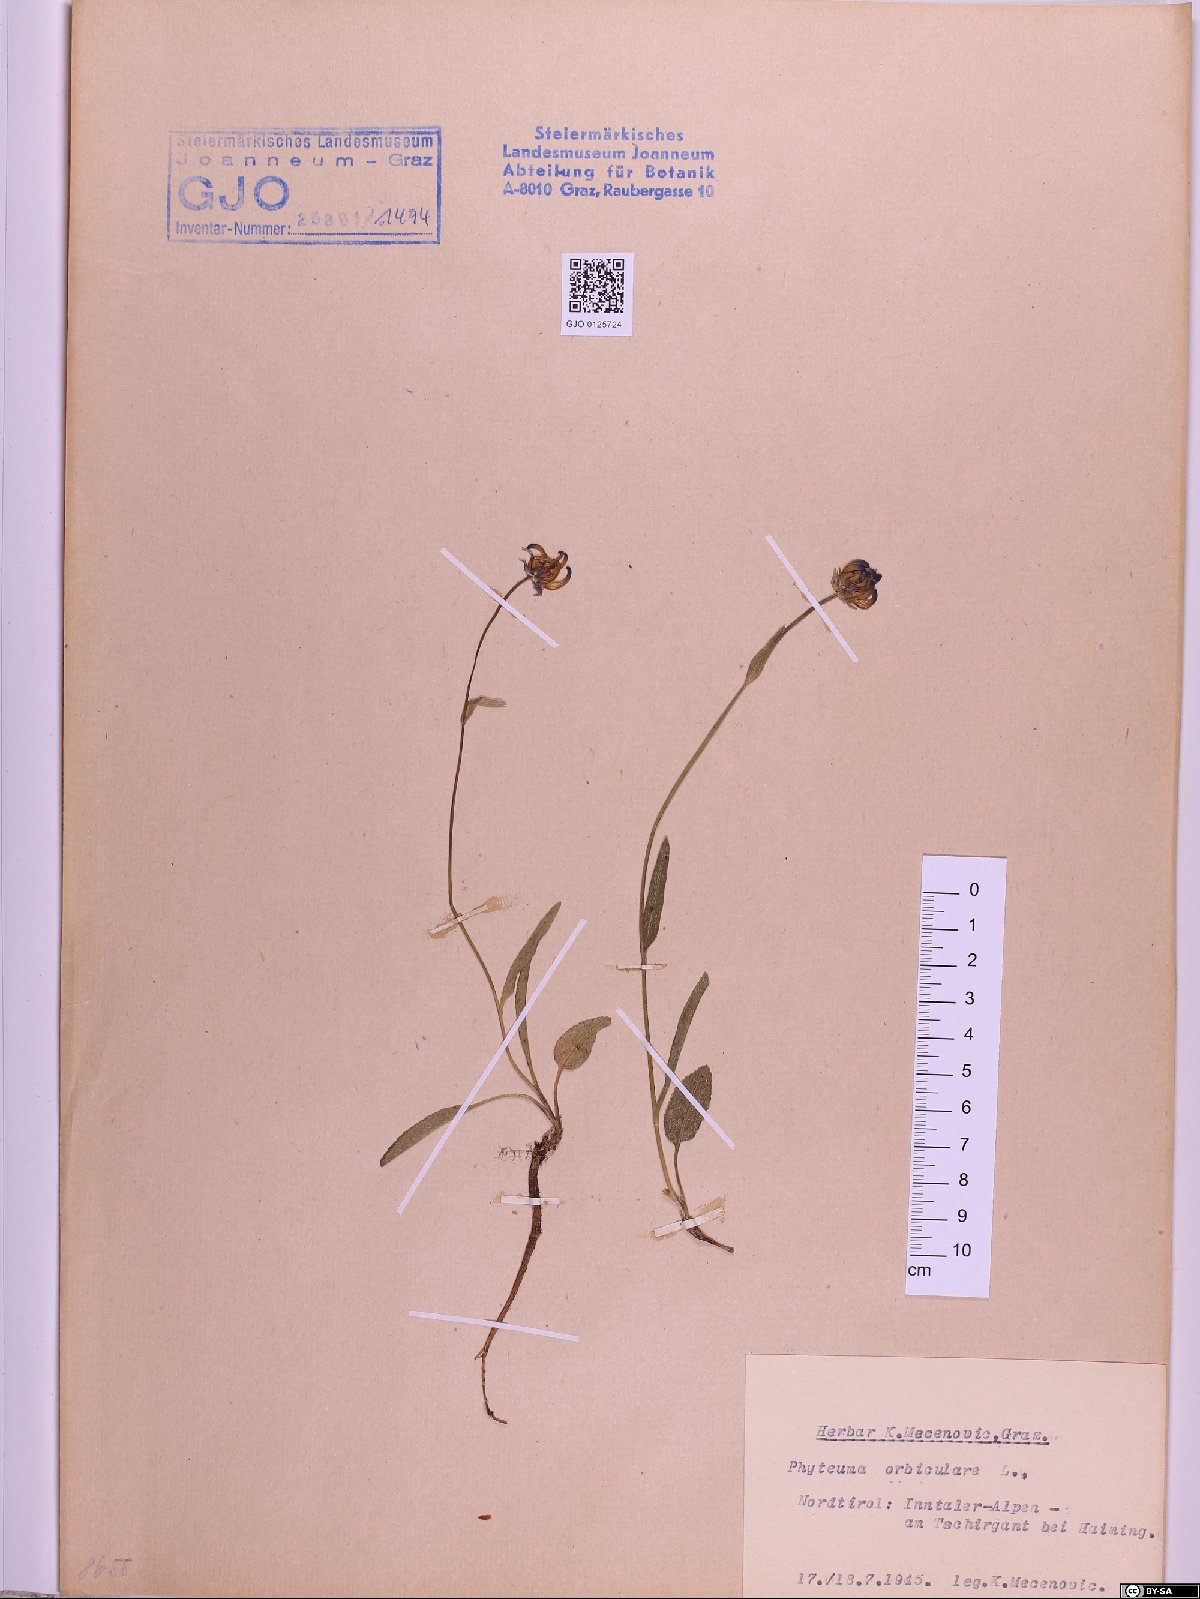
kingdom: Plantae
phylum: Tracheophyta
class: Magnoliopsida
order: Asterales
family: Campanulaceae
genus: Phyteuma
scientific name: Phyteuma orbiculare
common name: Round-headed rampion
